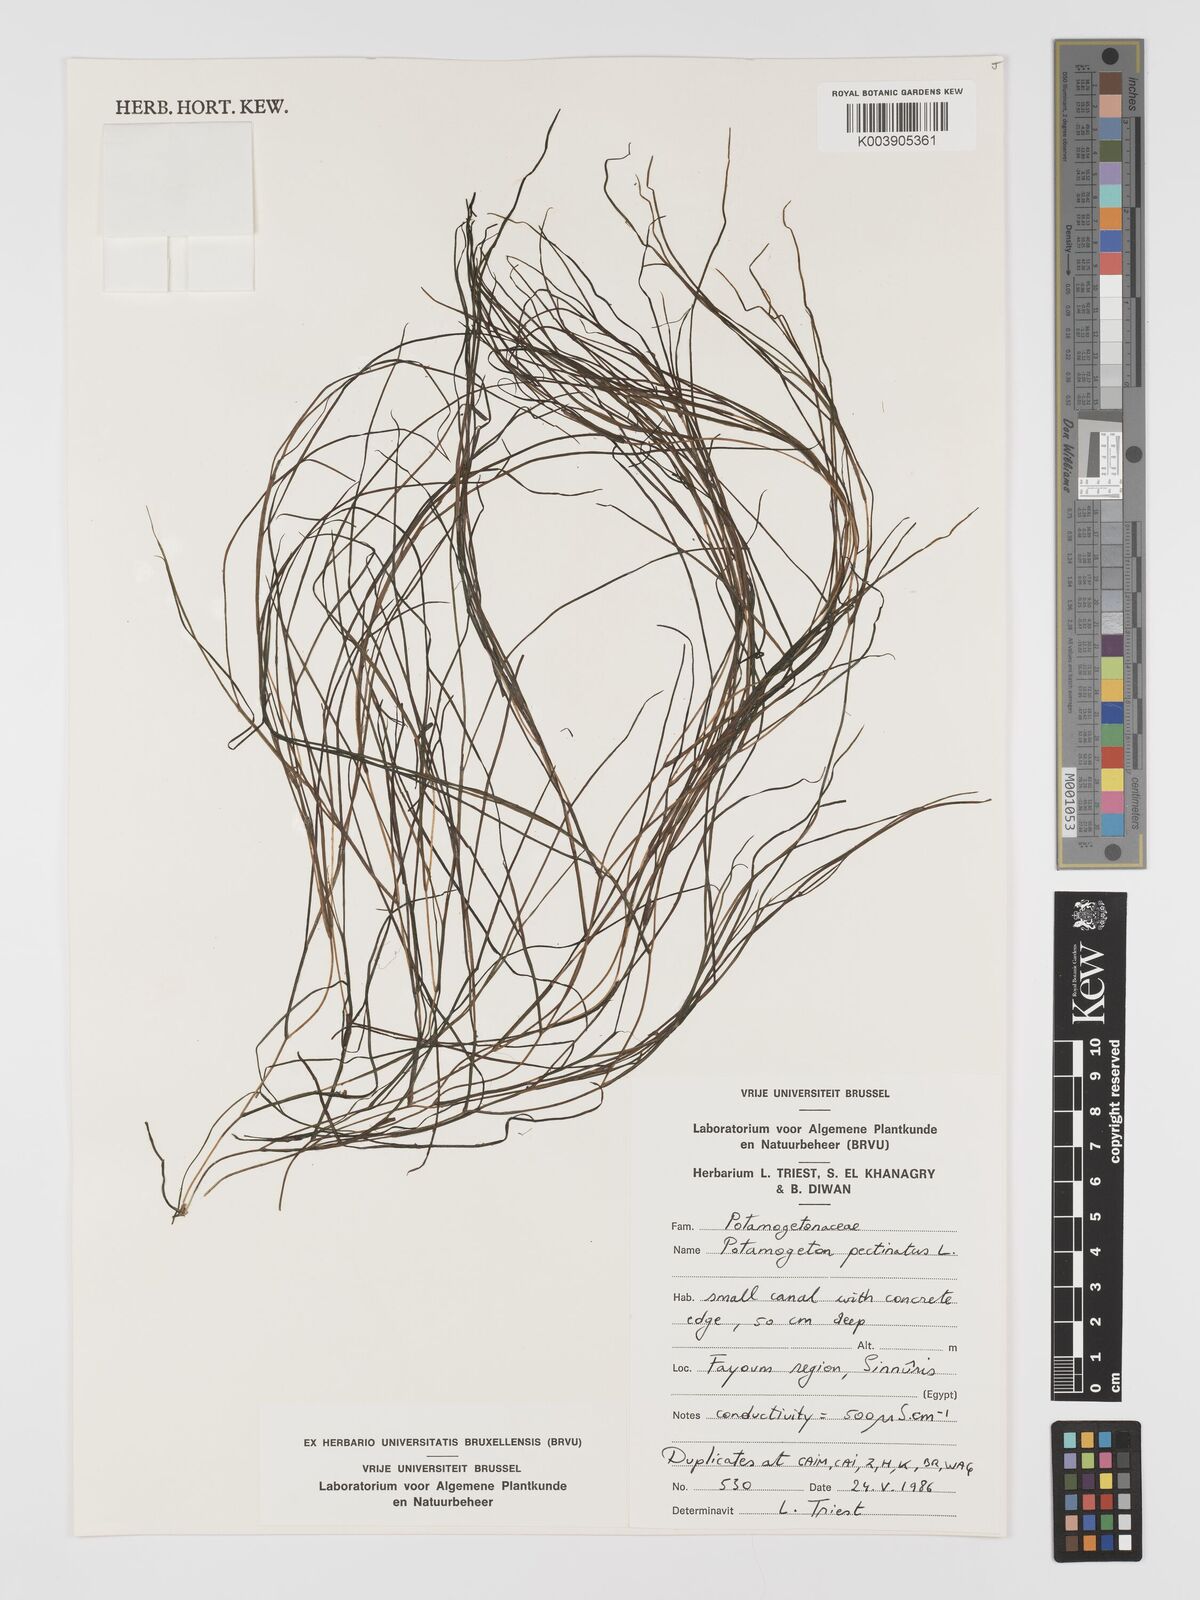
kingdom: Plantae
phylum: Tracheophyta
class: Liliopsida
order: Alismatales
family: Potamogetonaceae
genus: Stuckenia
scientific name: Stuckenia pectinata
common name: Sago pondweed
